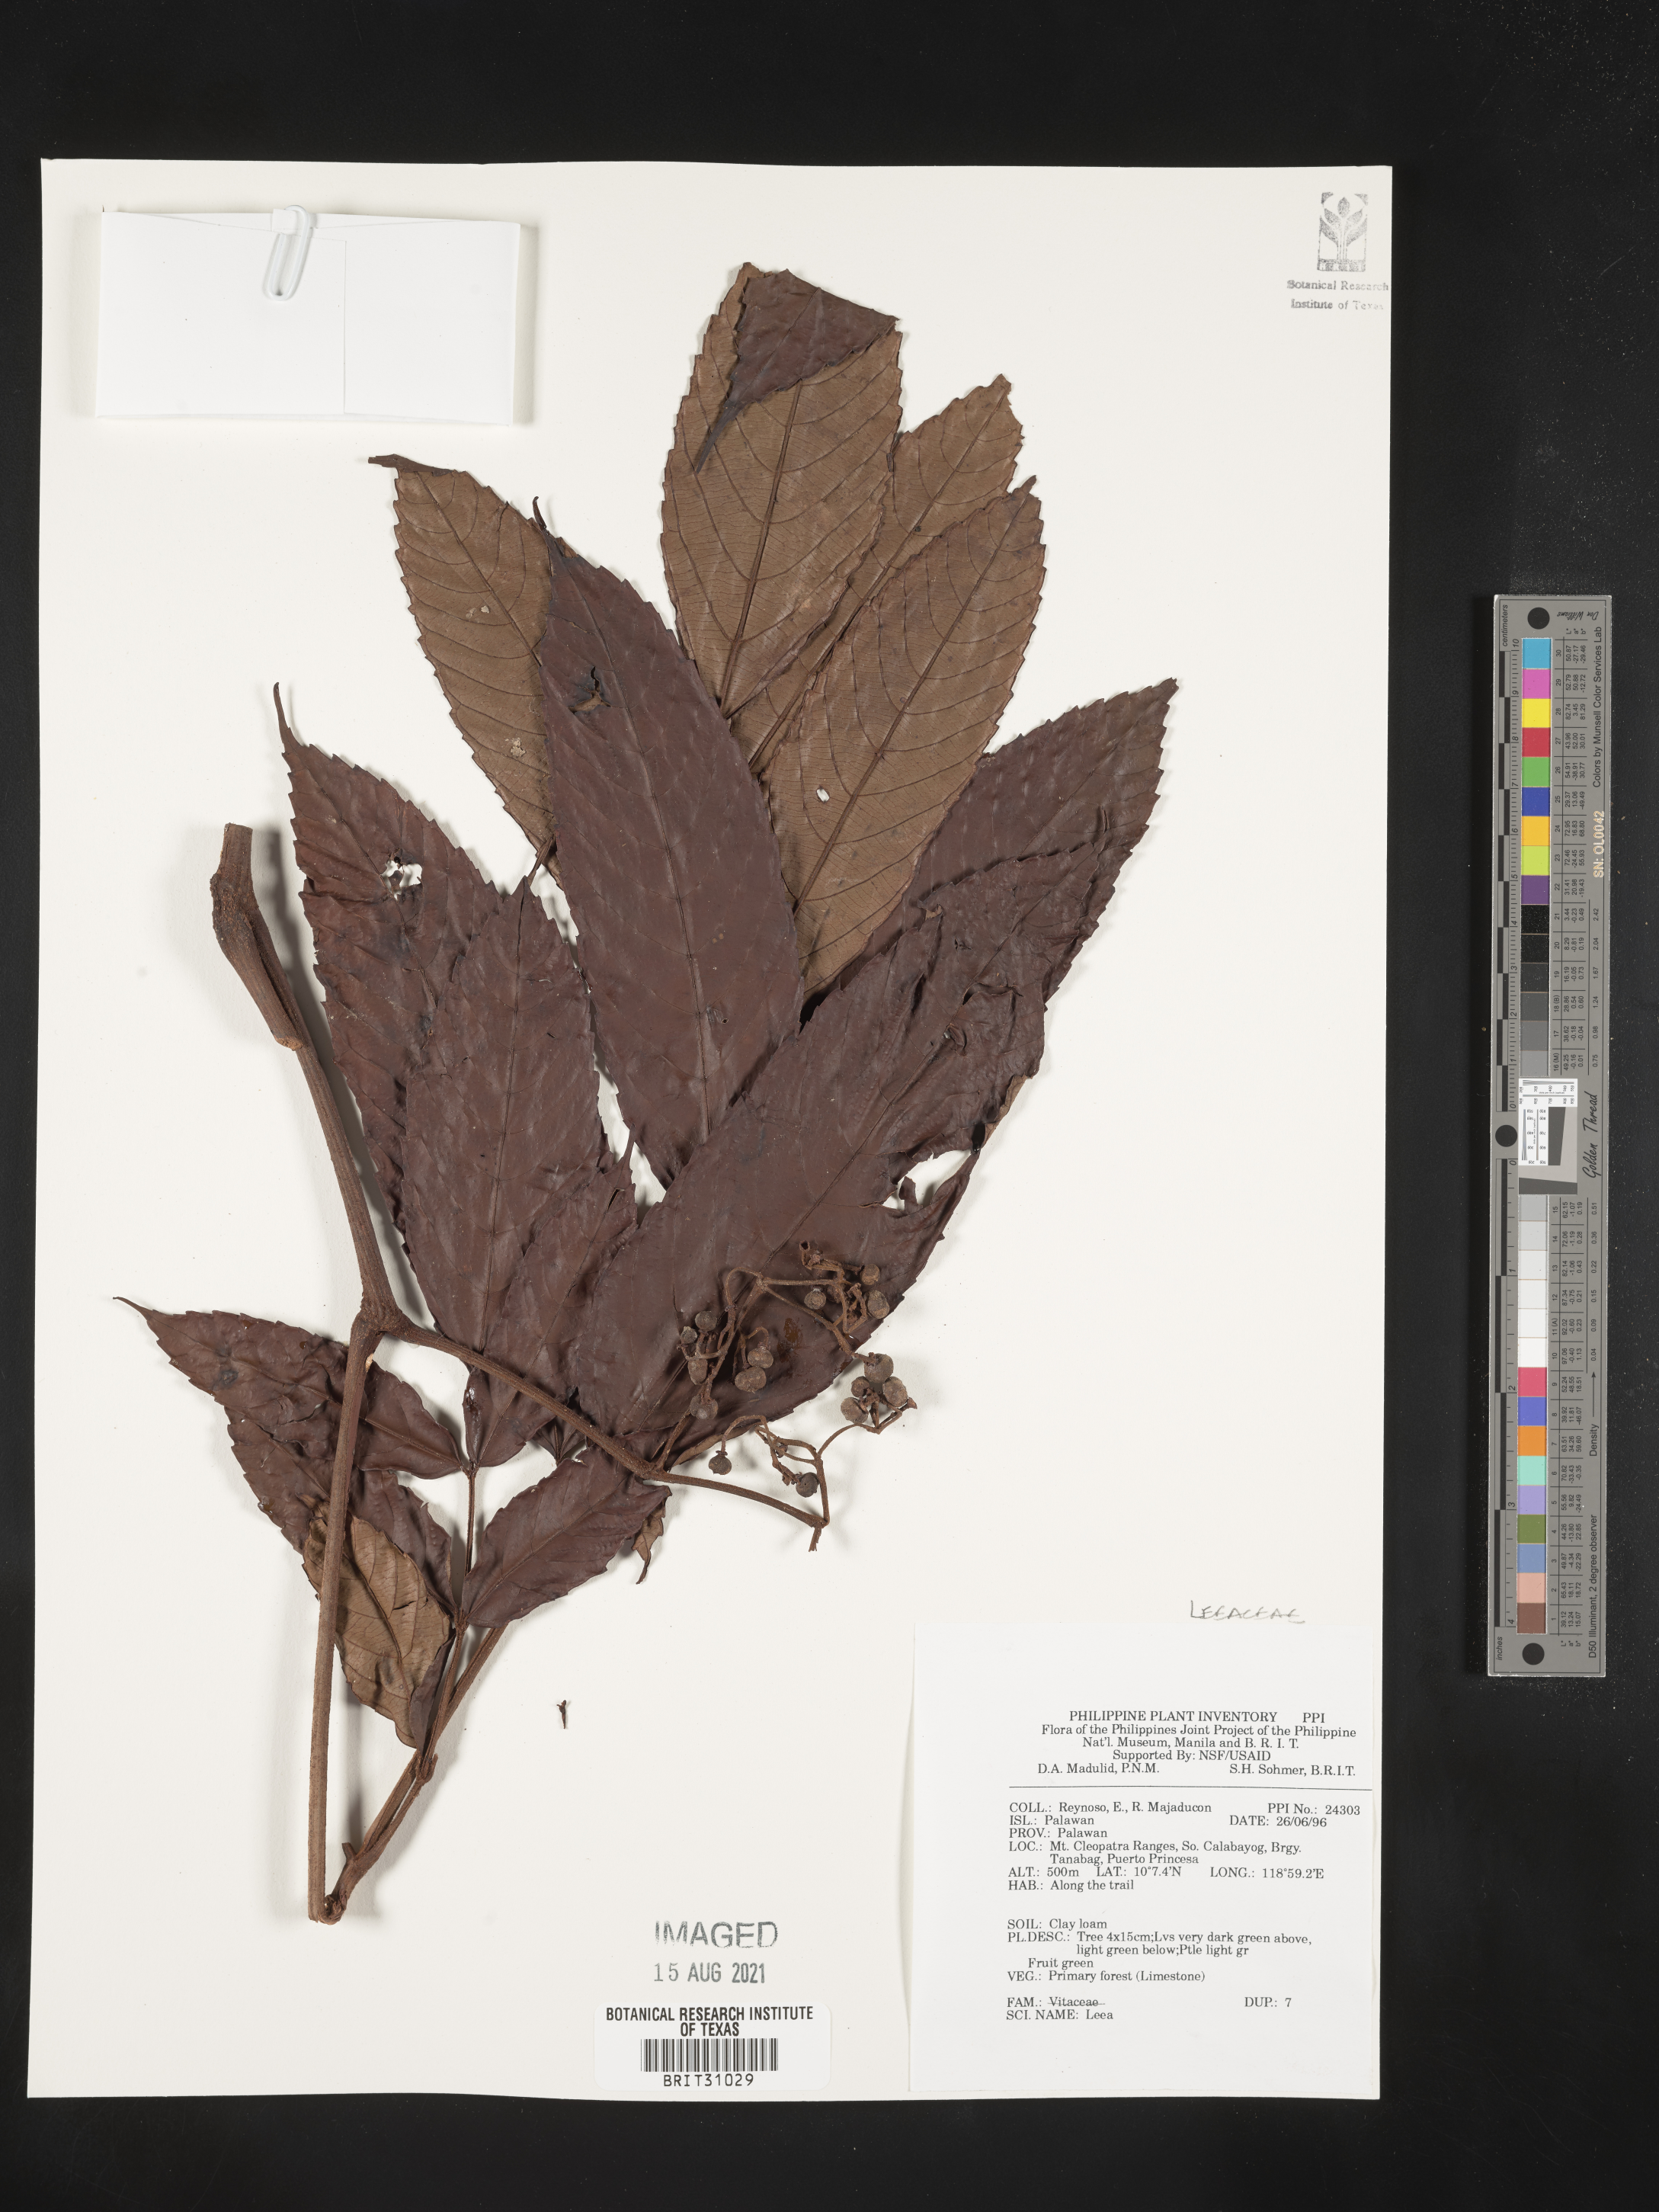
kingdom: Plantae
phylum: Tracheophyta
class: Magnoliopsida
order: Vitales
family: Vitaceae
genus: Leea
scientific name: Leea
